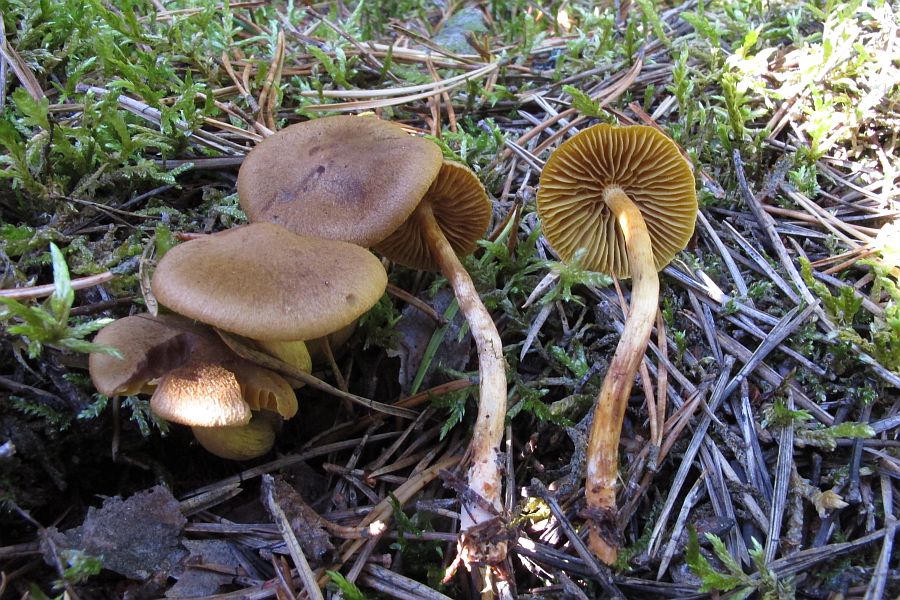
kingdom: Fungi
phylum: Basidiomycota
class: Agaricomycetes
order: Agaricales
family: Cortinariaceae
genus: Cortinarius
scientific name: Cortinarius
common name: gulbladet slørhat
